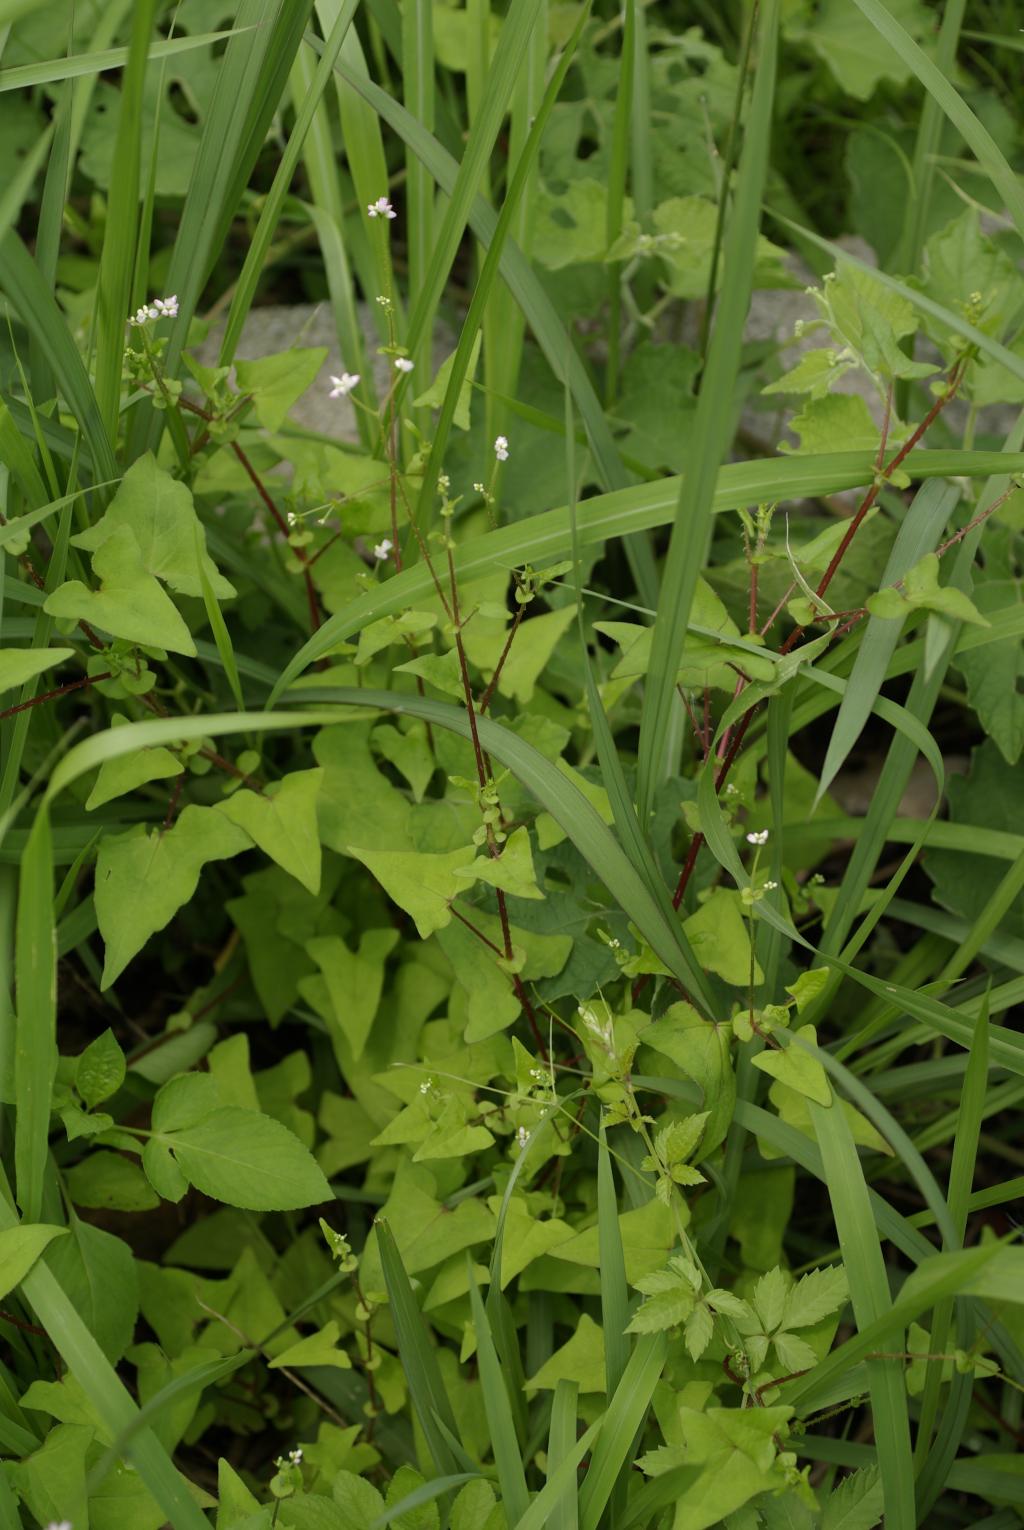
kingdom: Plantae
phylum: Tracheophyta
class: Magnoliopsida
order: Caryophyllales
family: Polygonaceae
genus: Persicaria
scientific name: Persicaria senticosa
